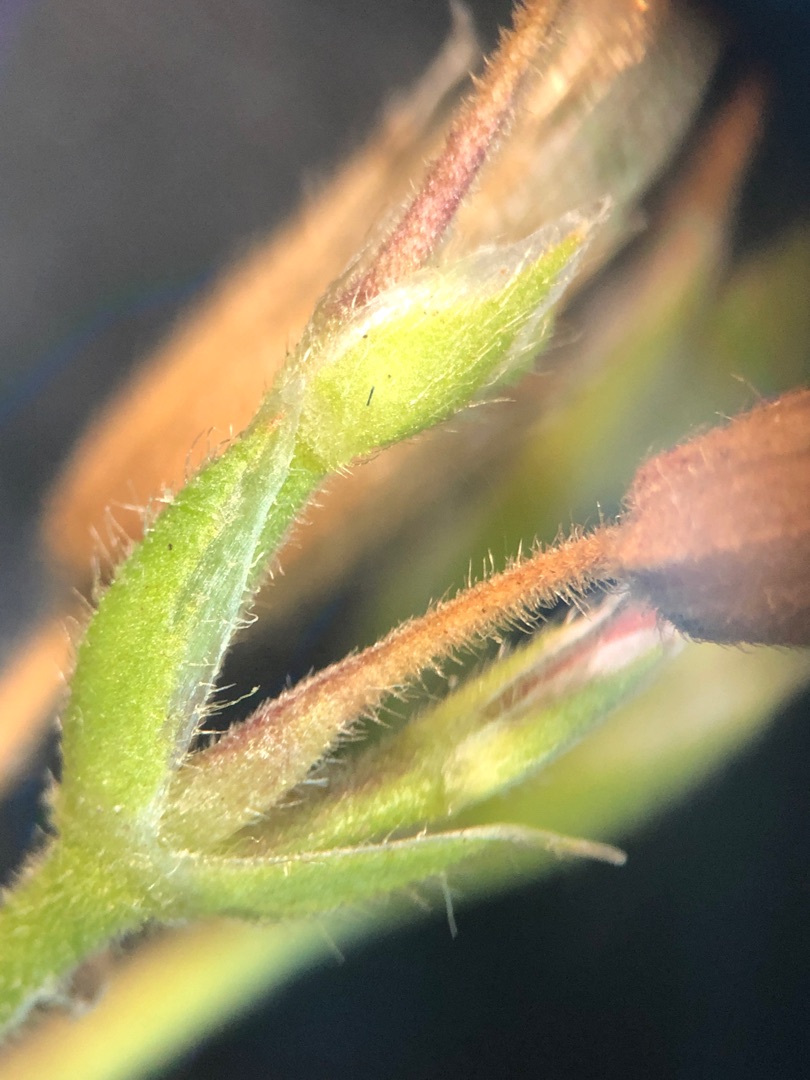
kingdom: Plantae
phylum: Tracheophyta
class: Magnoliopsida
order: Caryophyllales
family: Caryophyllaceae
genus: Cerastium
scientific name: Cerastium fontanum
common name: Almindelig hønsetarm
